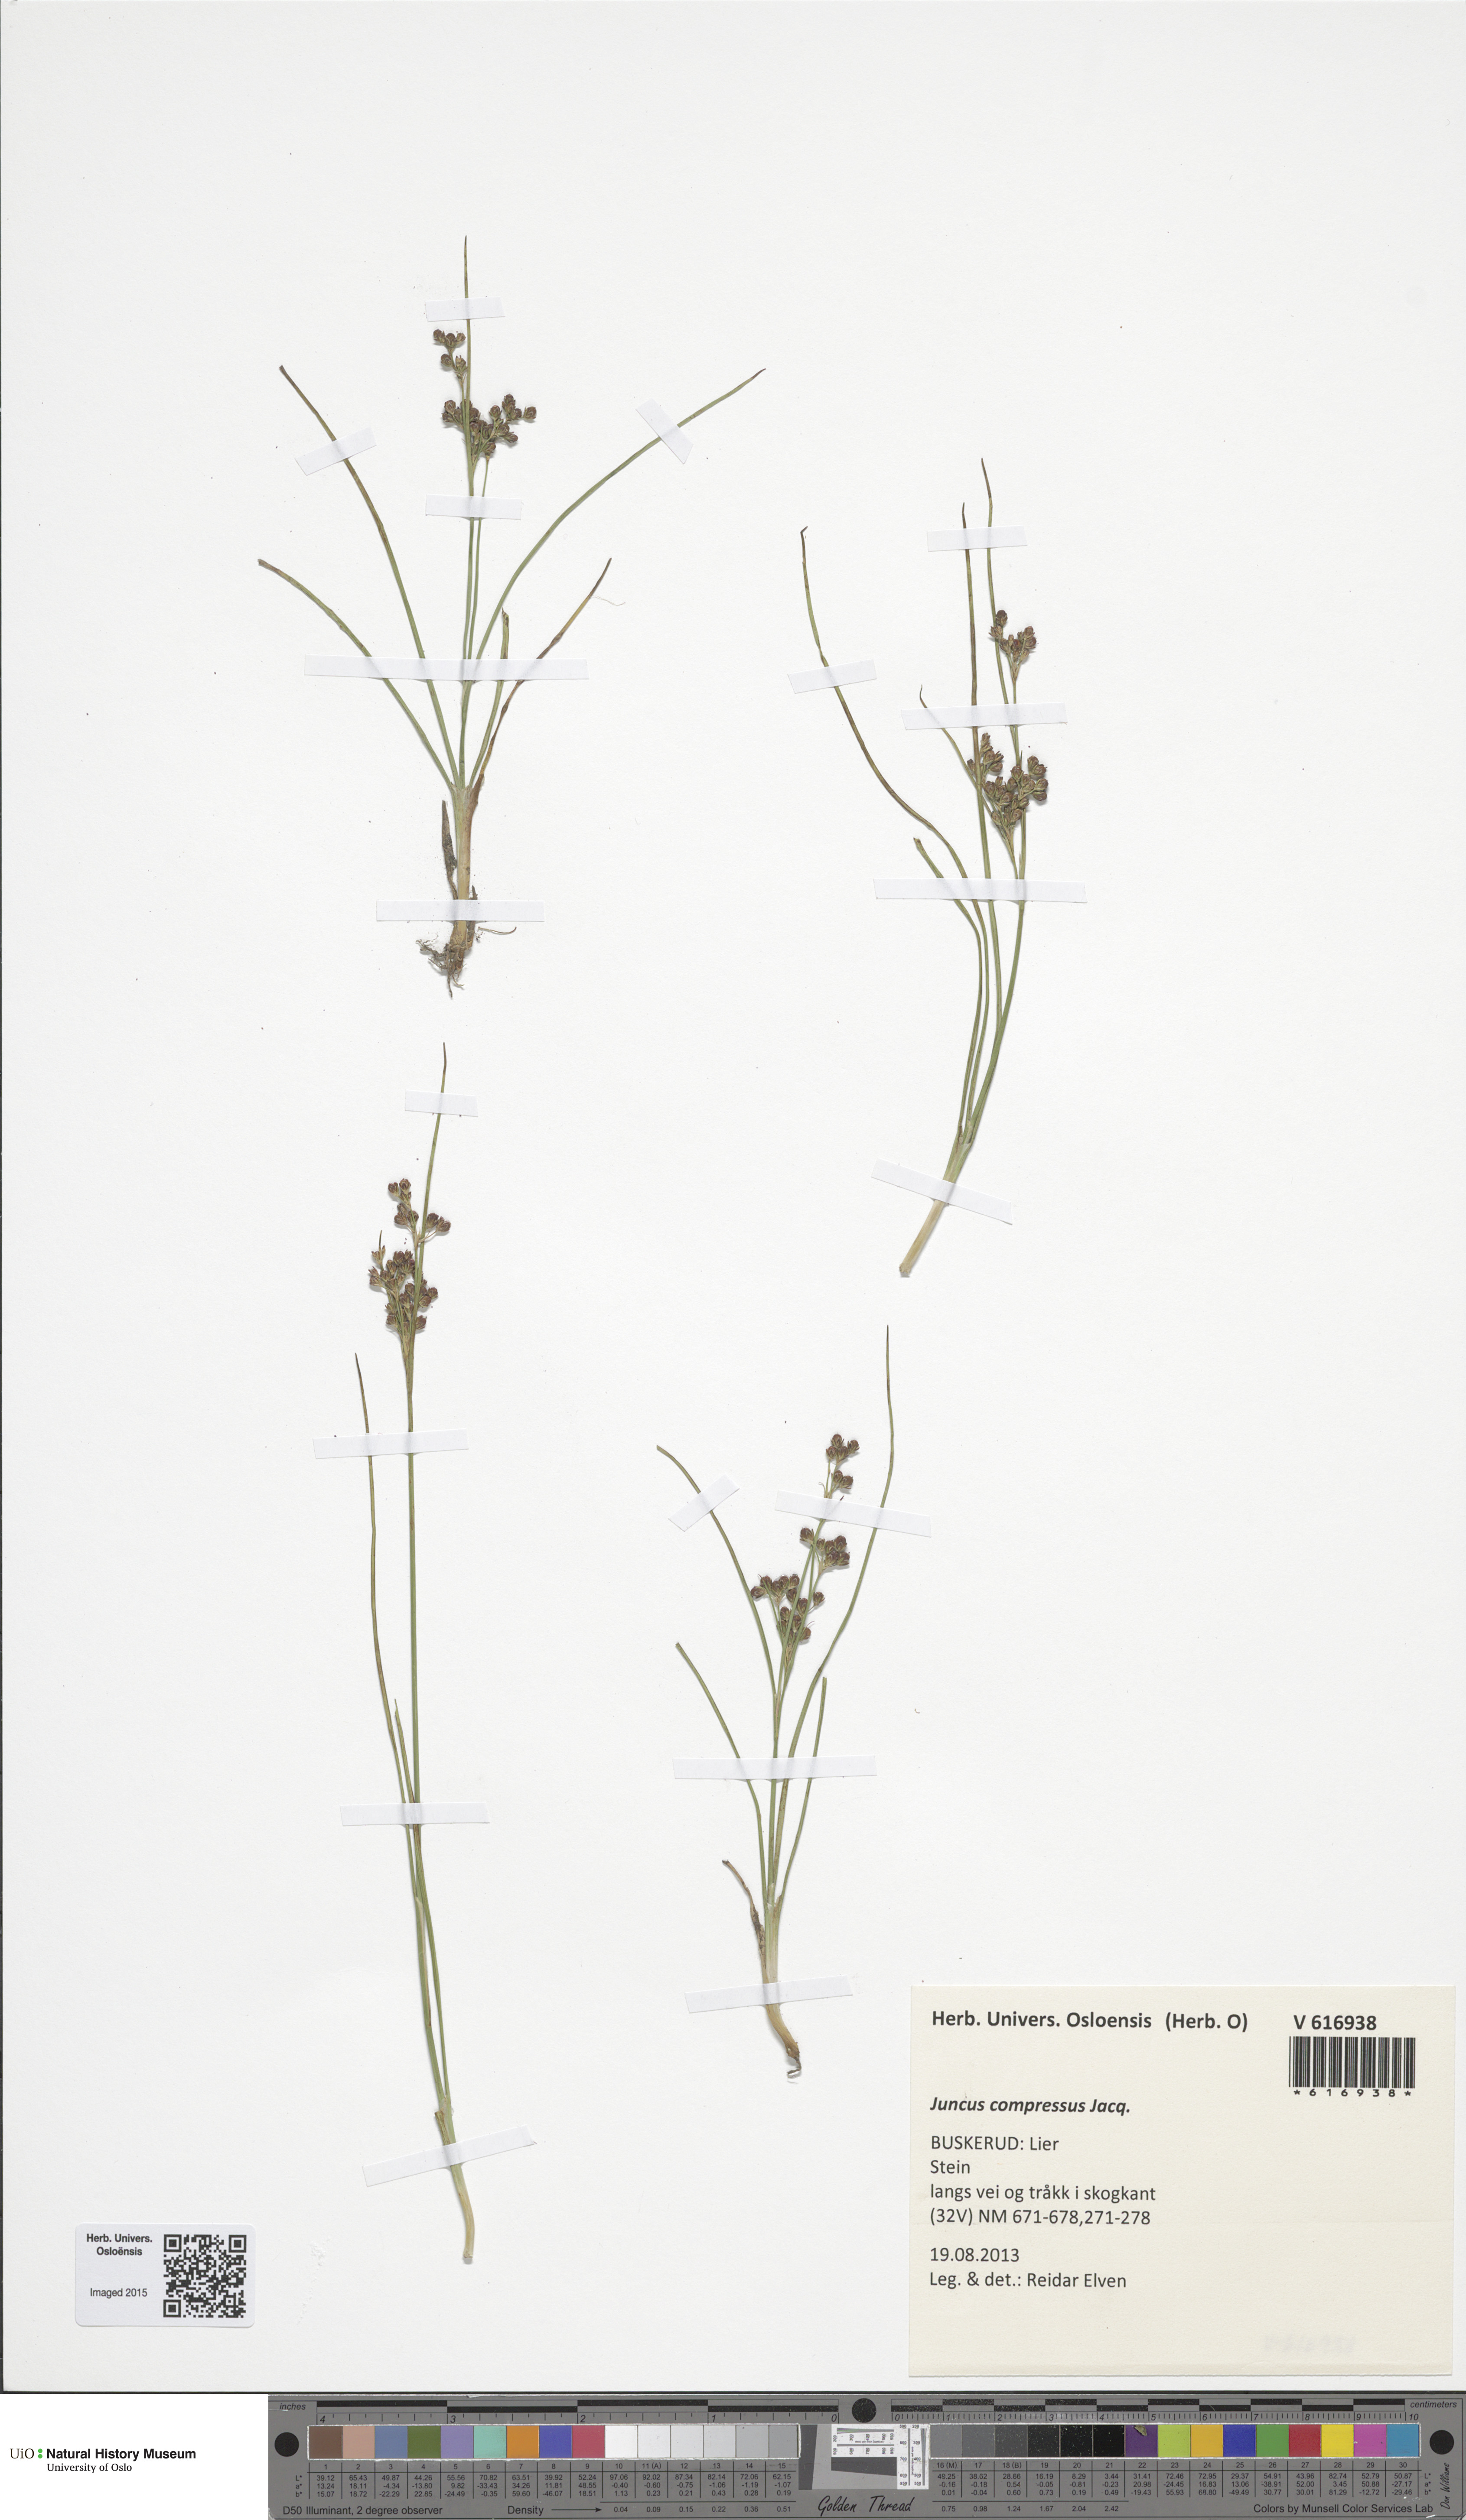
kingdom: Plantae
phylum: Tracheophyta
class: Liliopsida
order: Poales
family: Juncaceae
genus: Juncus
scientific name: Juncus compressus
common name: Round-fruited rush
